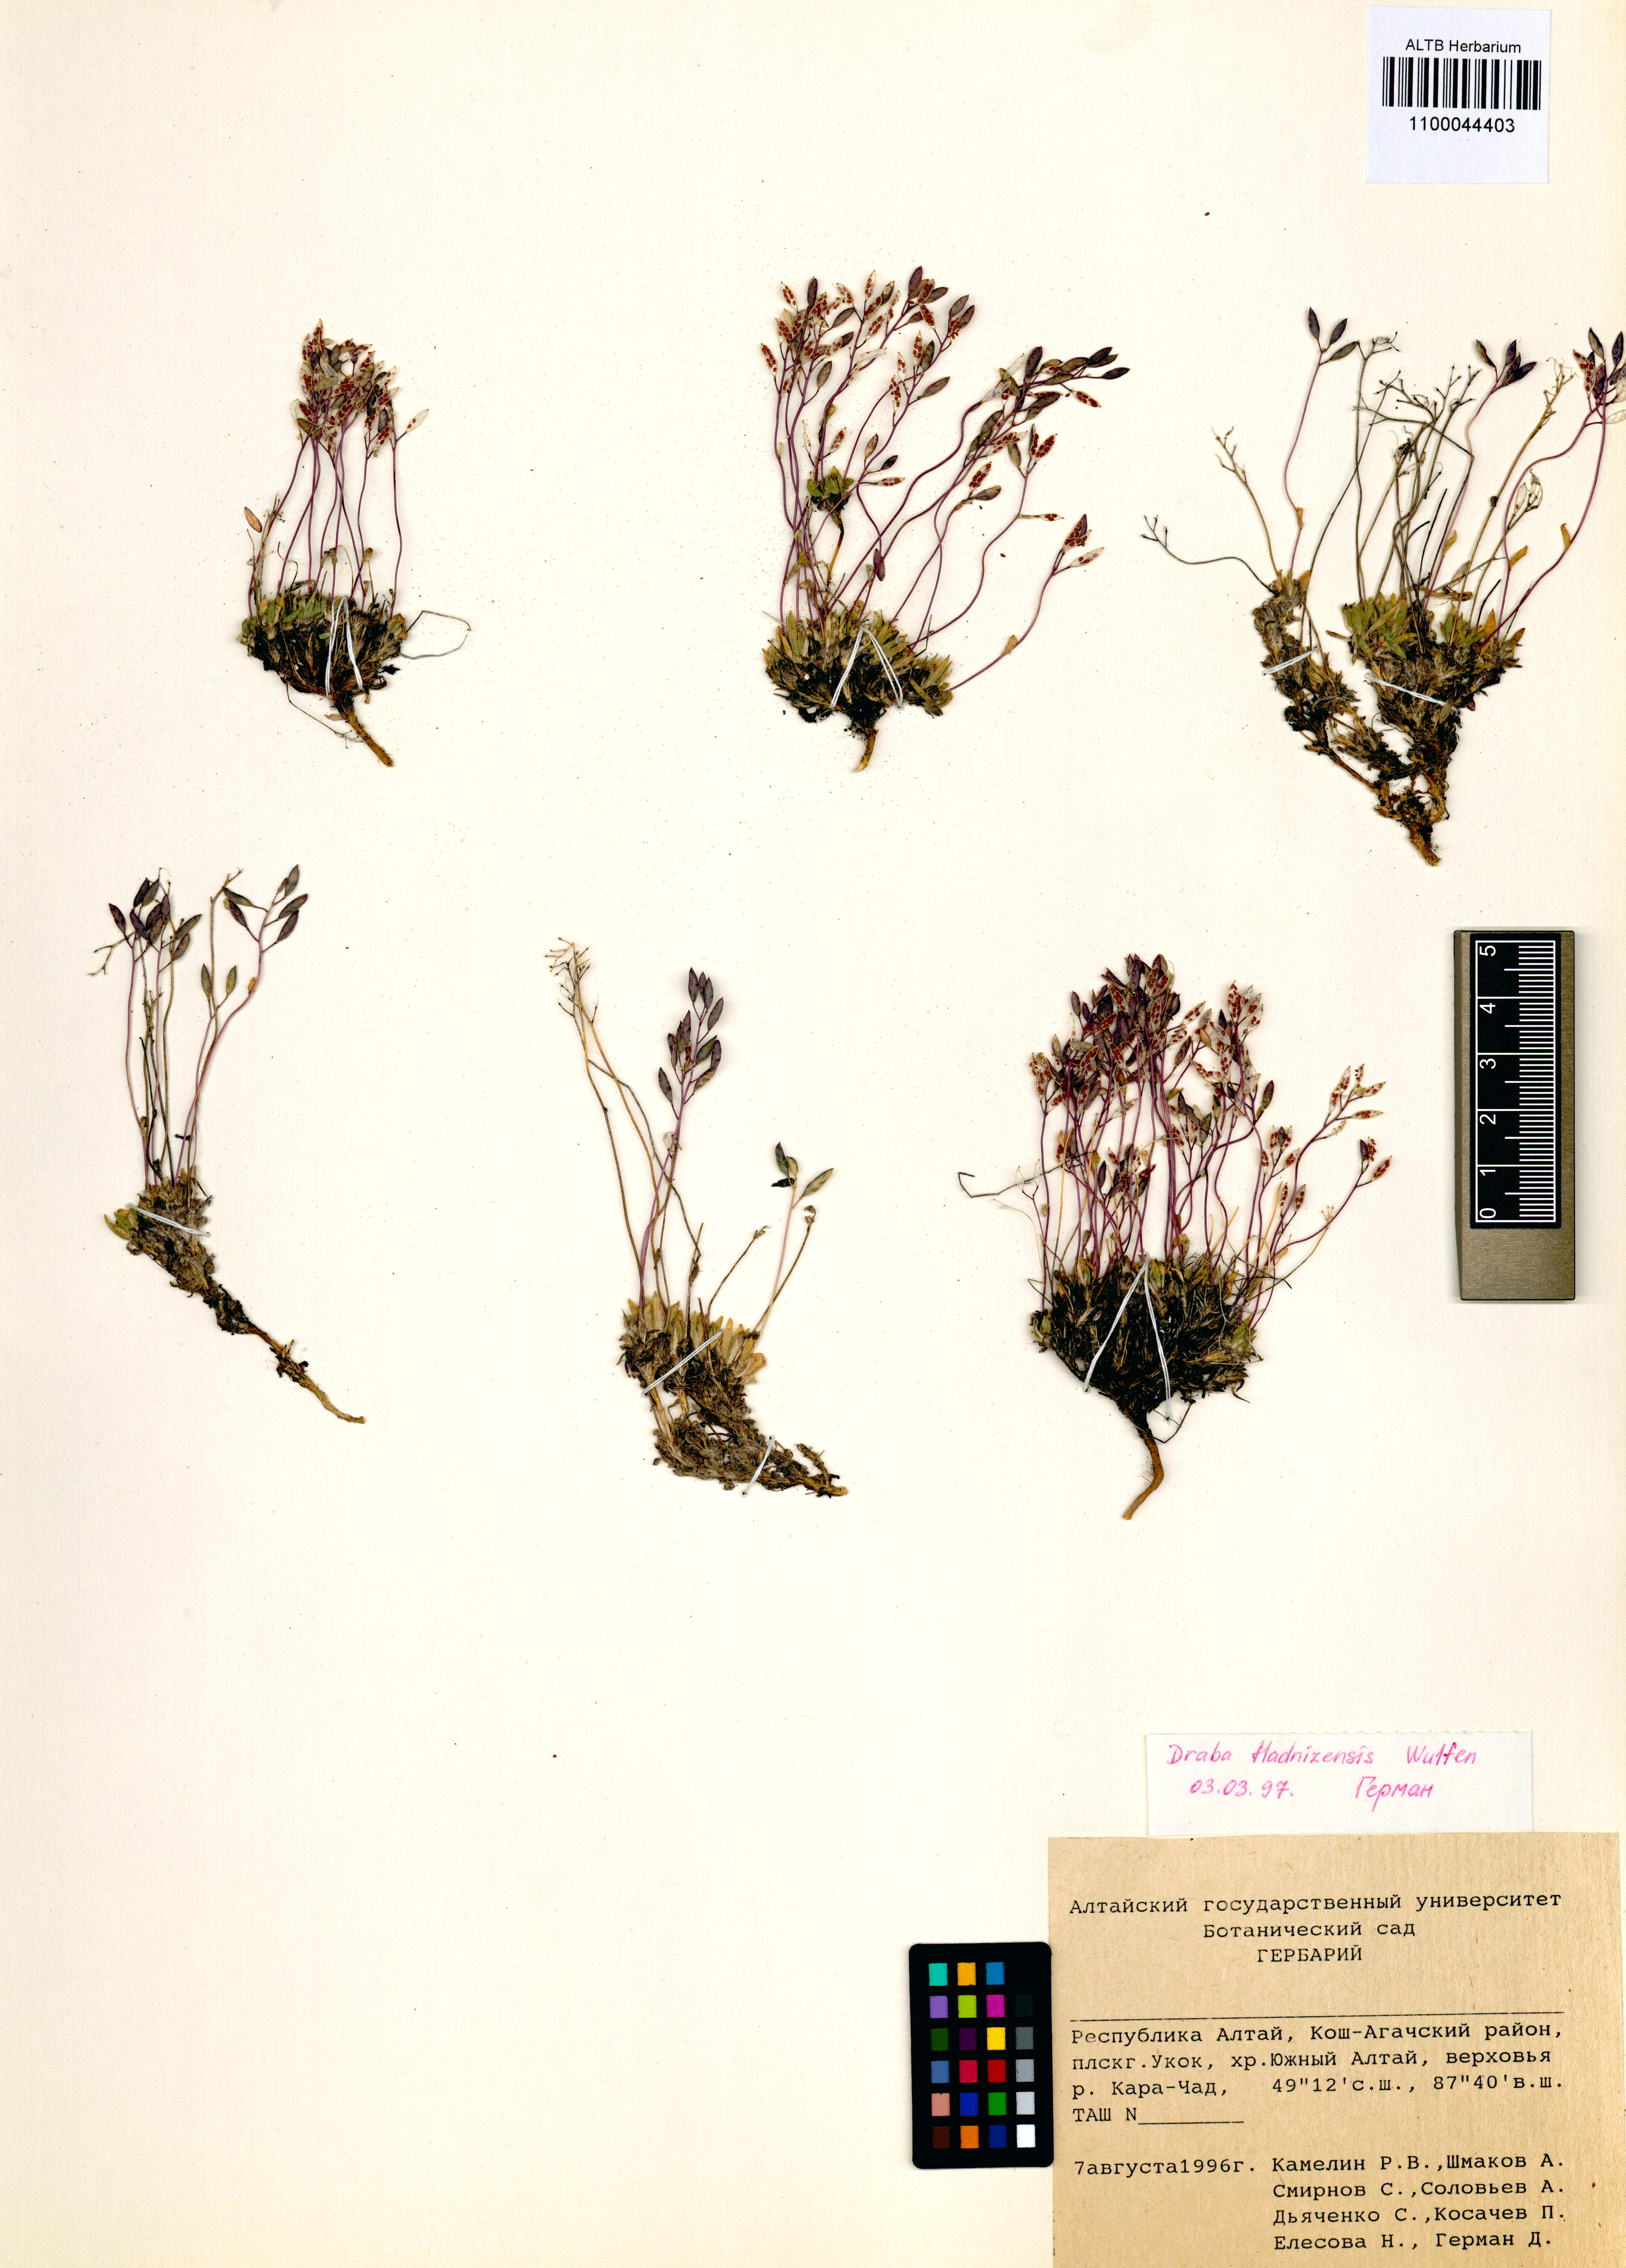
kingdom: Plantae
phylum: Tracheophyta
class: Magnoliopsida
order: Brassicales
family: Brassicaceae
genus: Draba
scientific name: Draba fladnizensis
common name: Austrian draba
